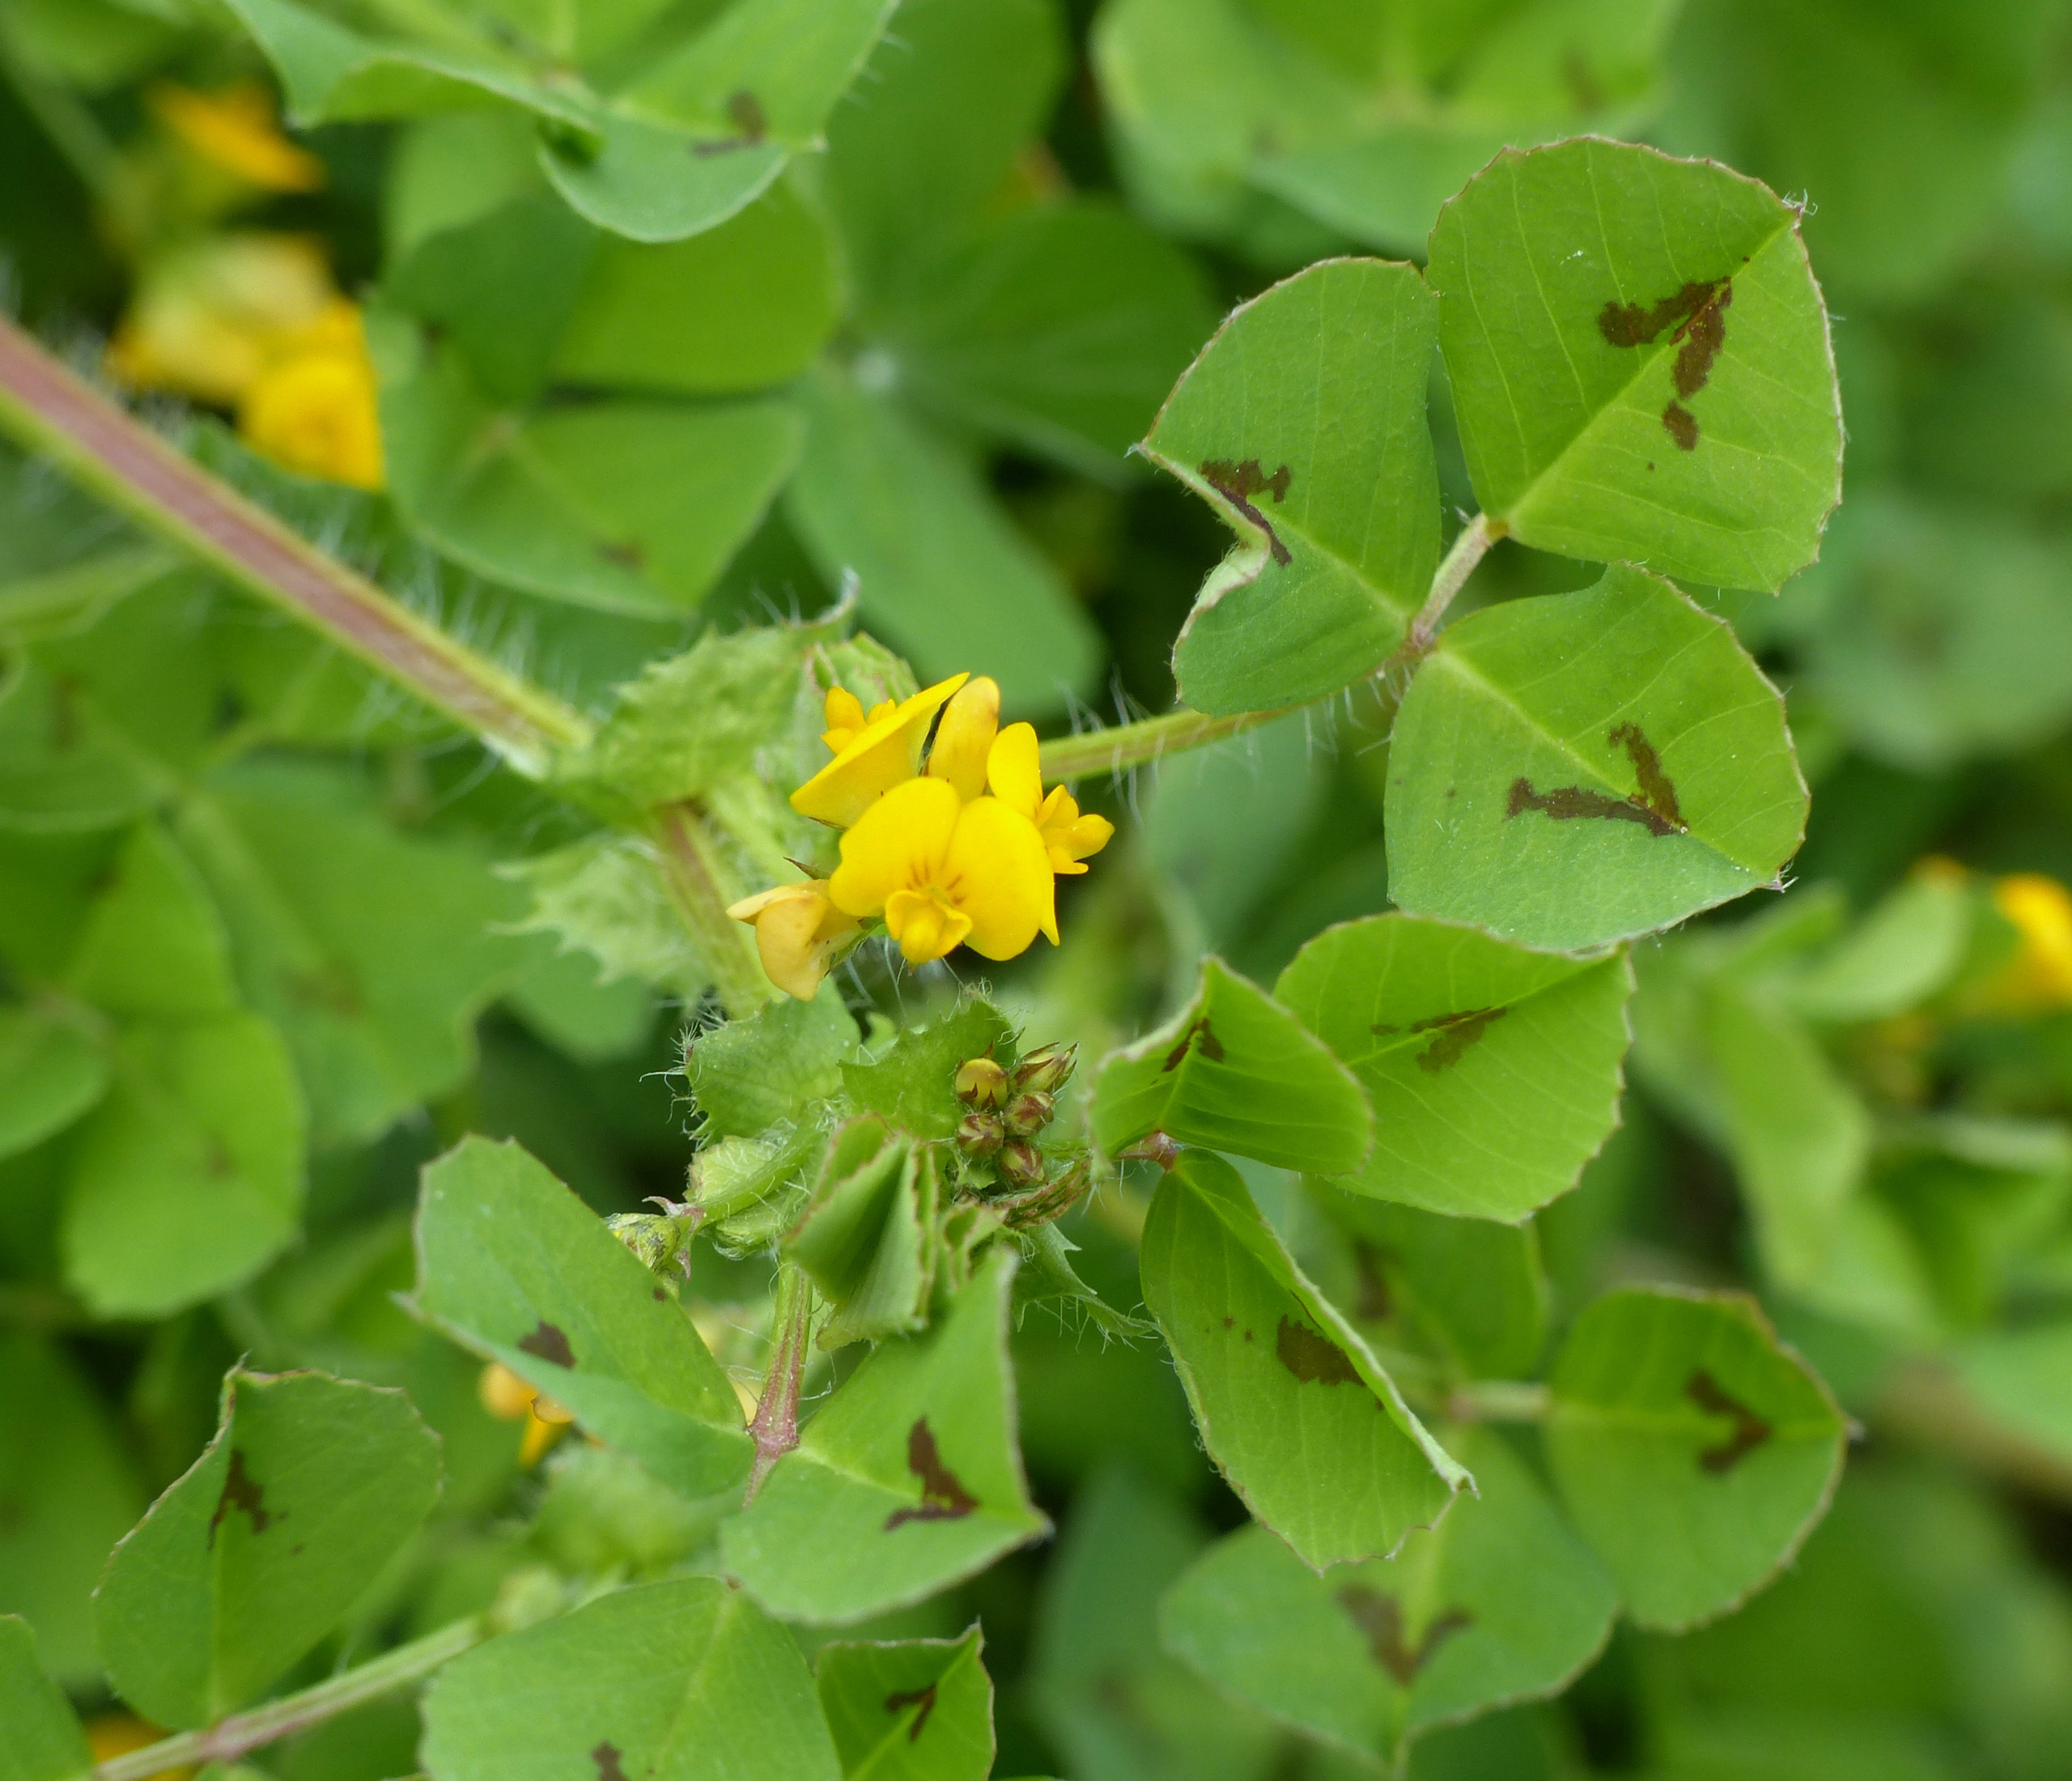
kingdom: Plantae
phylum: Tracheophyta
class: Magnoliopsida
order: Fabales
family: Fabaceae
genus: Medicago
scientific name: Medicago arabica
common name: Plet-sneglebælg
